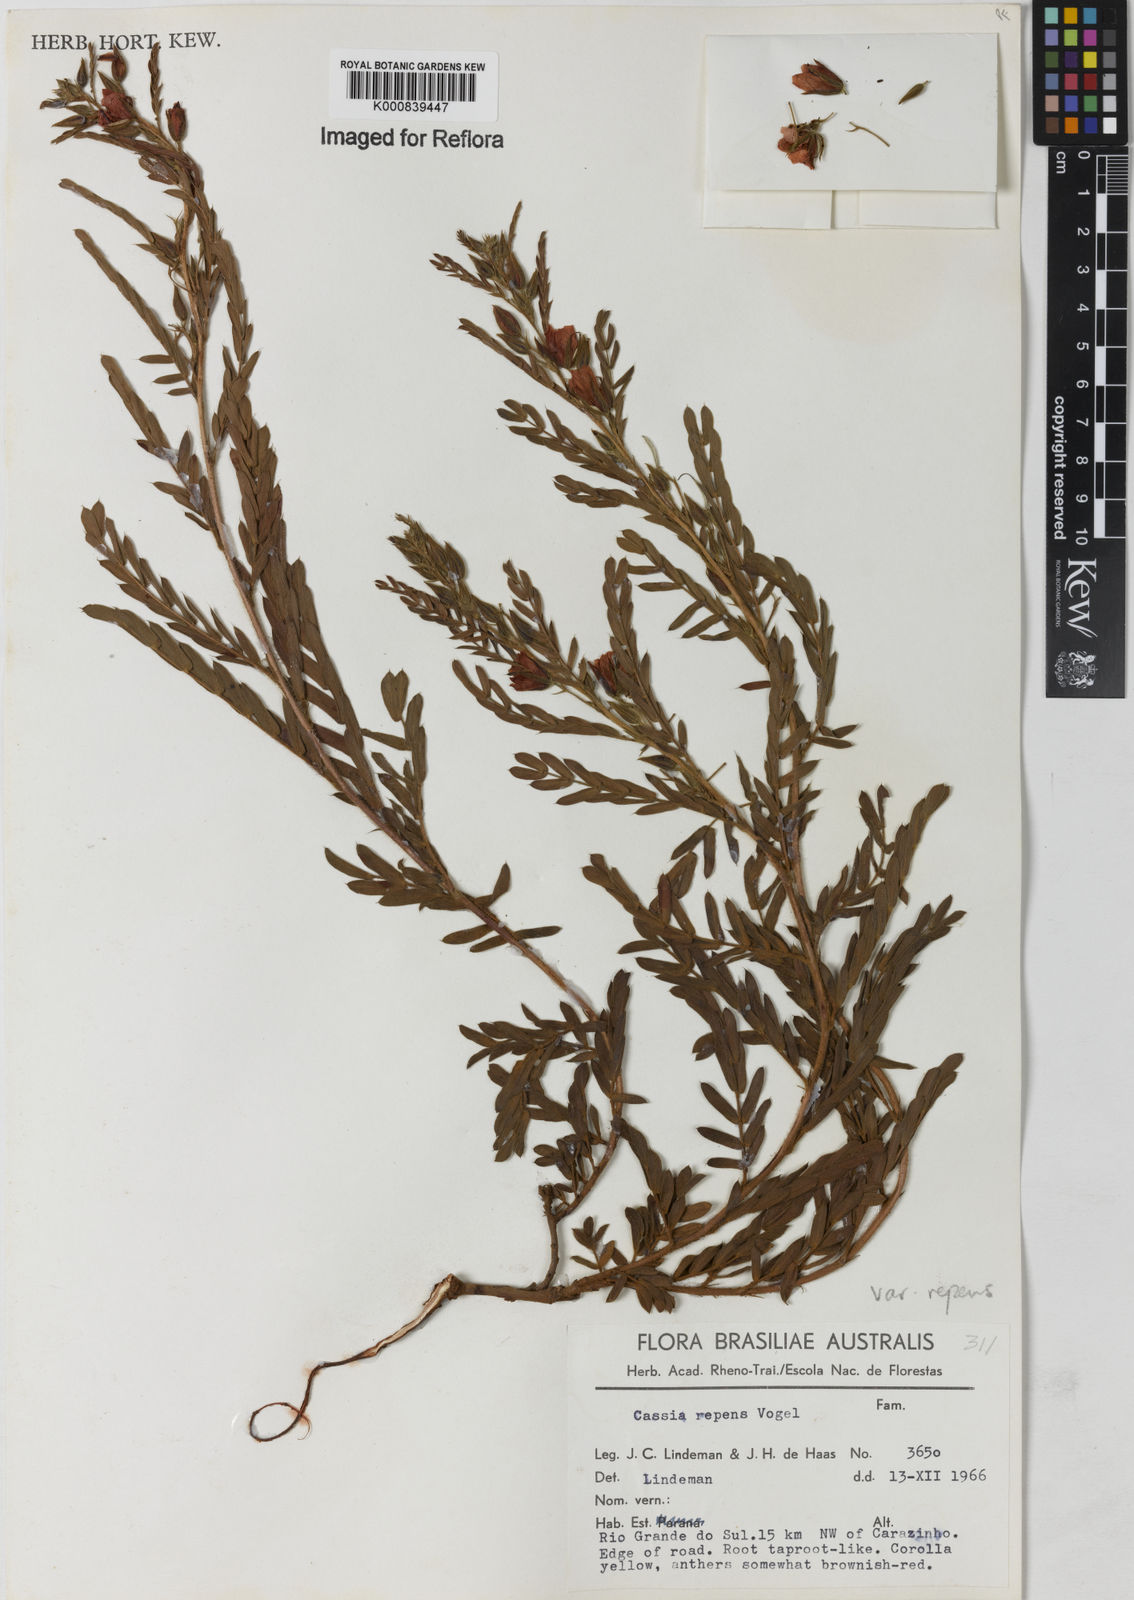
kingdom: Plantae
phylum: Tracheophyta
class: Magnoliopsida
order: Fabales
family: Fabaceae
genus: Chamaecrista
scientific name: Chamaecrista repens
